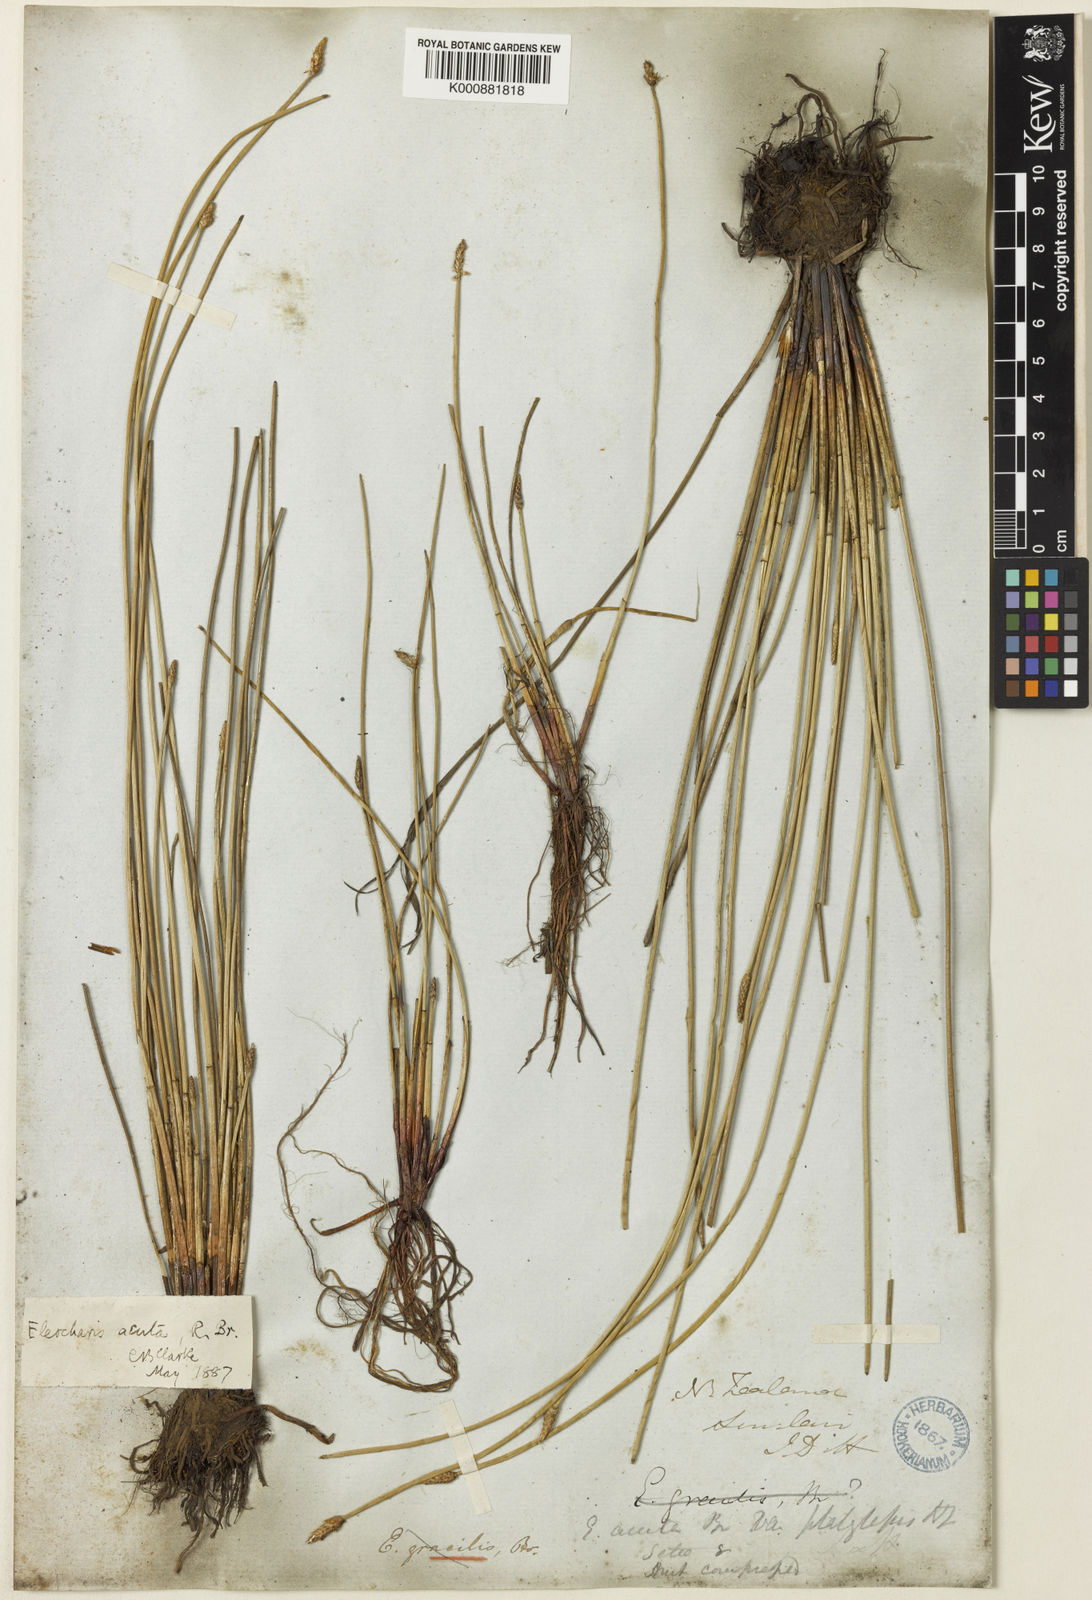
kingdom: Plantae
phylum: Tracheophyta
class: Liliopsida
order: Poales
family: Cyperaceae
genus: Eleocharis
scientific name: Eleocharis acuta
